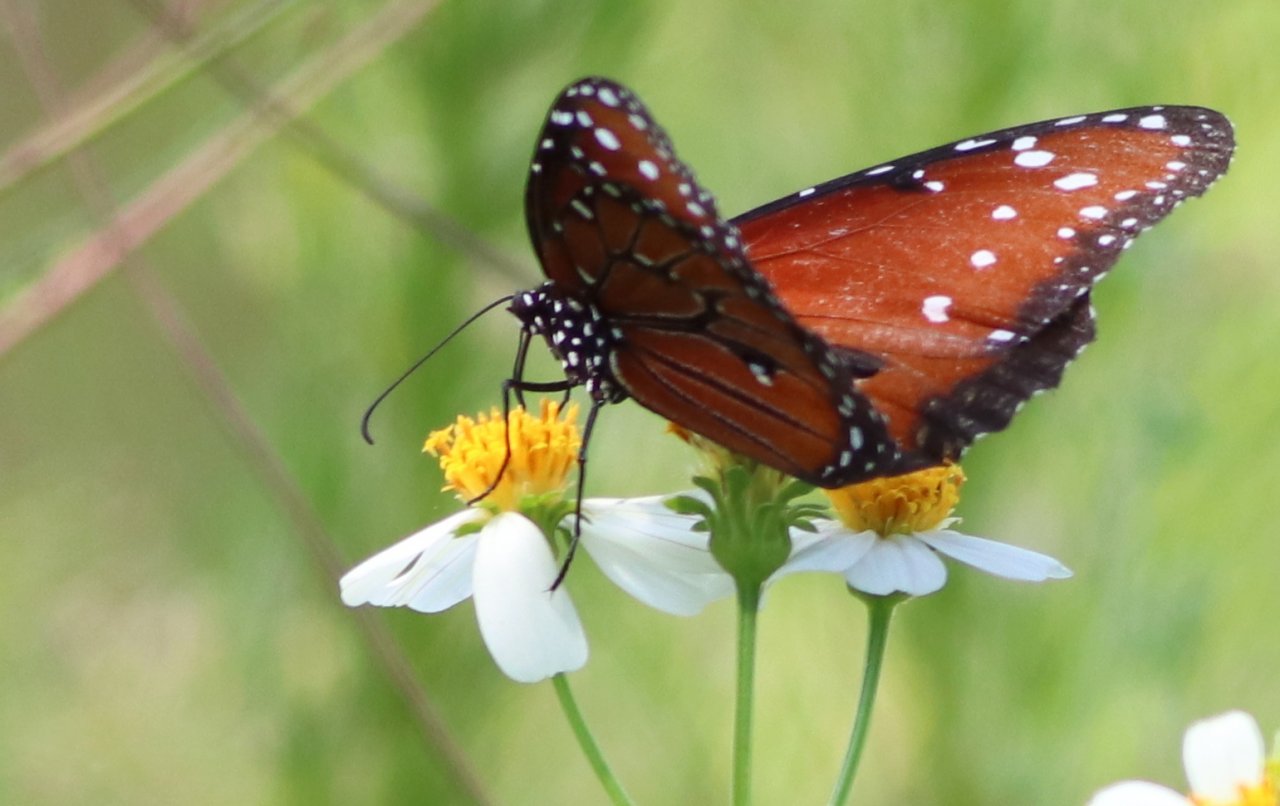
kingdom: Animalia
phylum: Arthropoda
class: Insecta
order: Lepidoptera
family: Nymphalidae
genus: Danaus
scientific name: Danaus gilippus
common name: Queen
